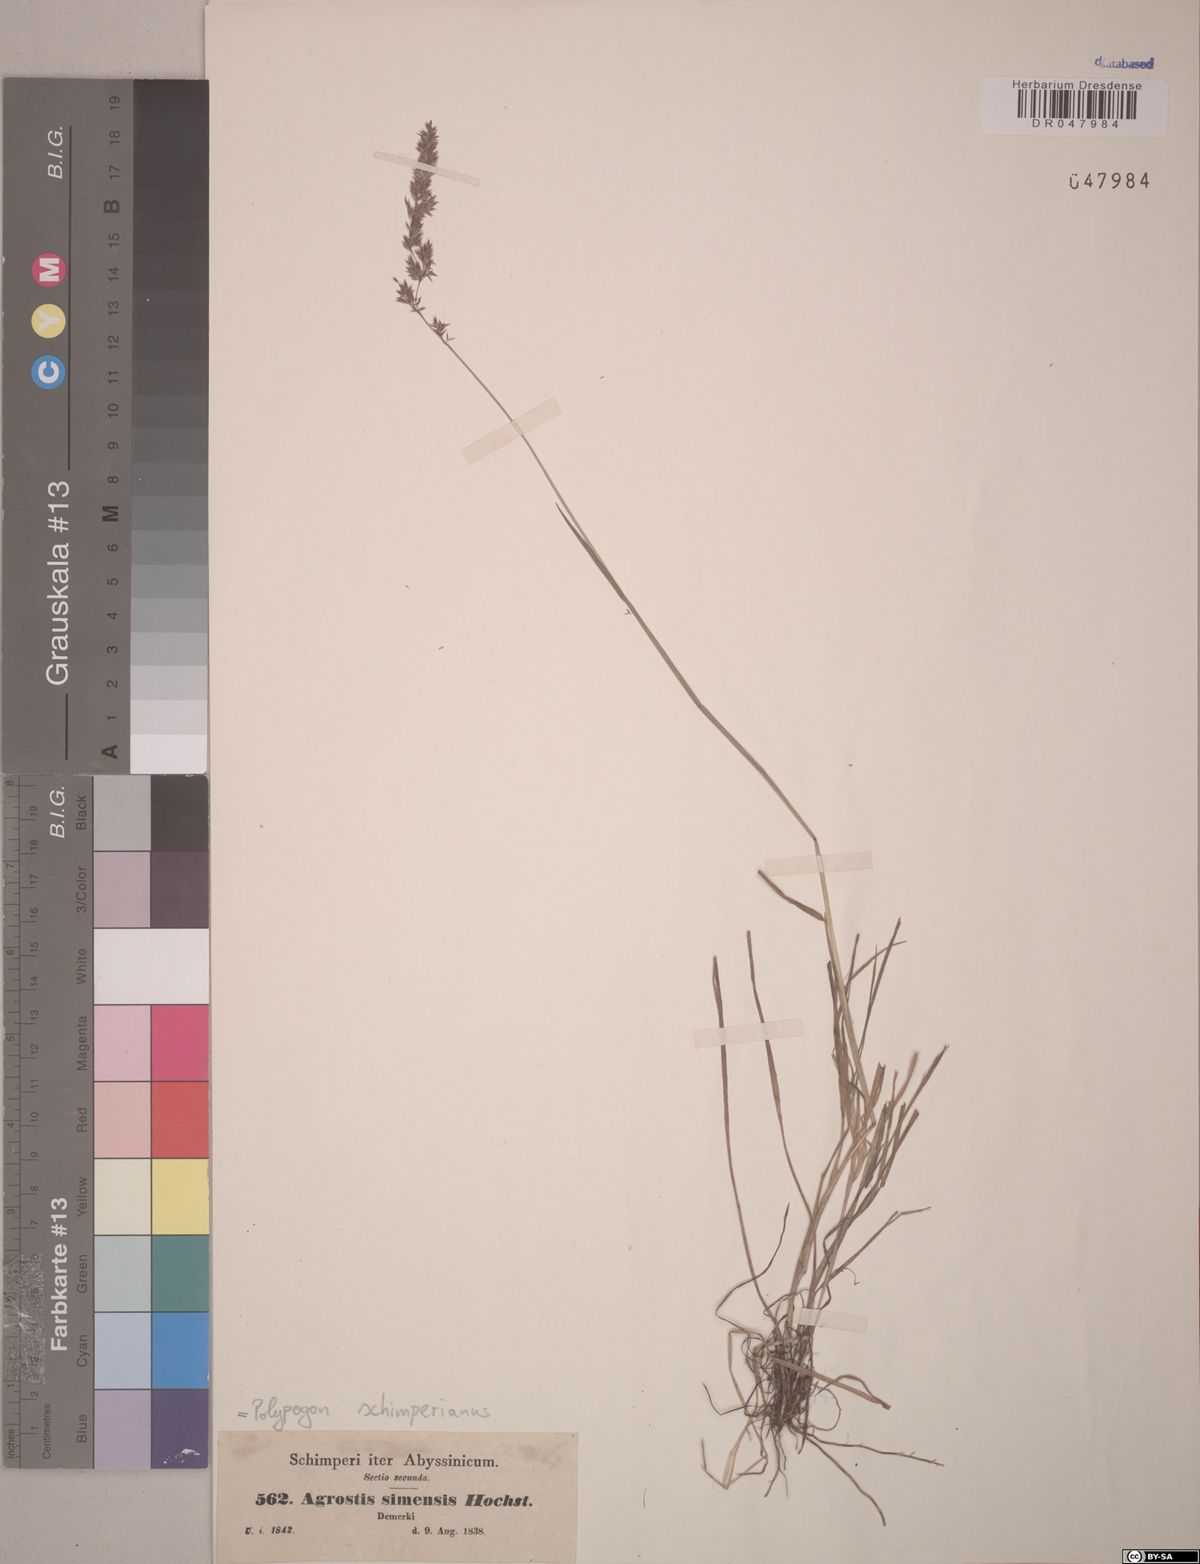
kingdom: Plantae
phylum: Tracheophyta
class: Liliopsida
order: Poales
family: Poaceae
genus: Polypogon
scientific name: Polypogon schimperianus
